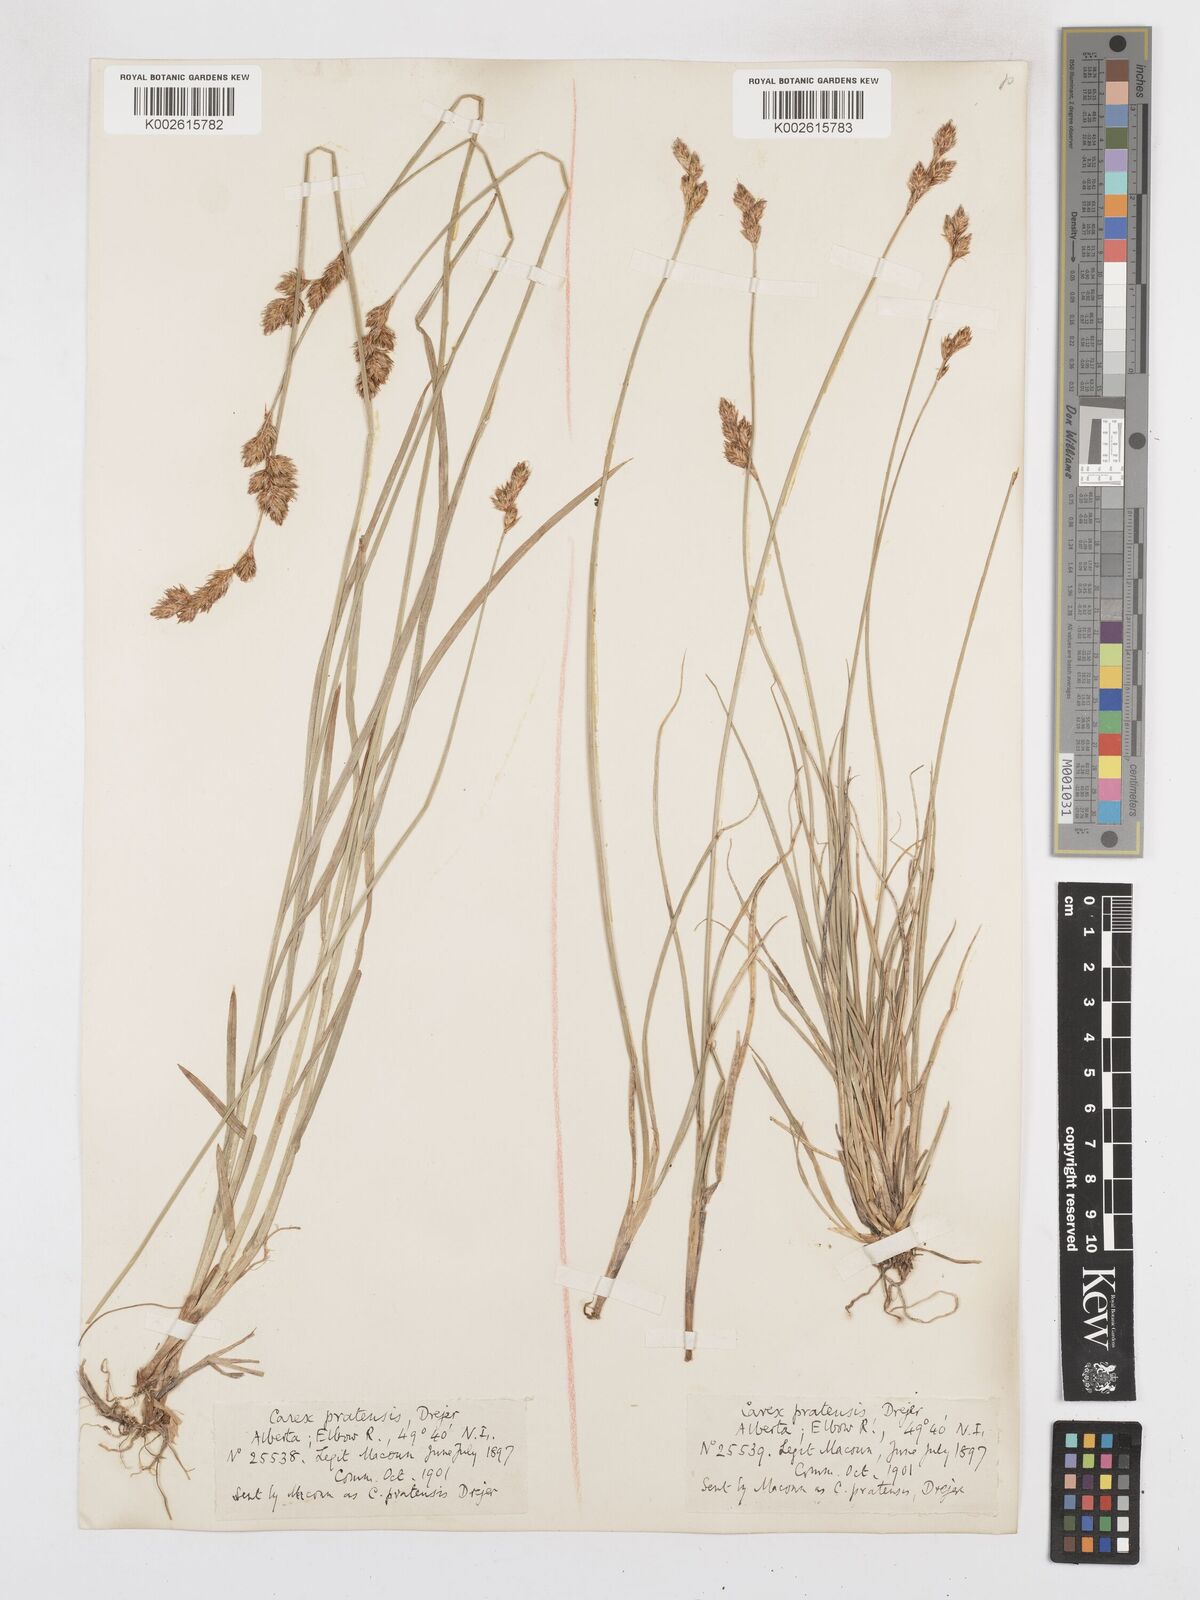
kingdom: Plantae
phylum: Tracheophyta
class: Liliopsida
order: Poales
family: Cyperaceae
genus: Carex
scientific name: Carex praticola
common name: Large-fruited oval sedge
